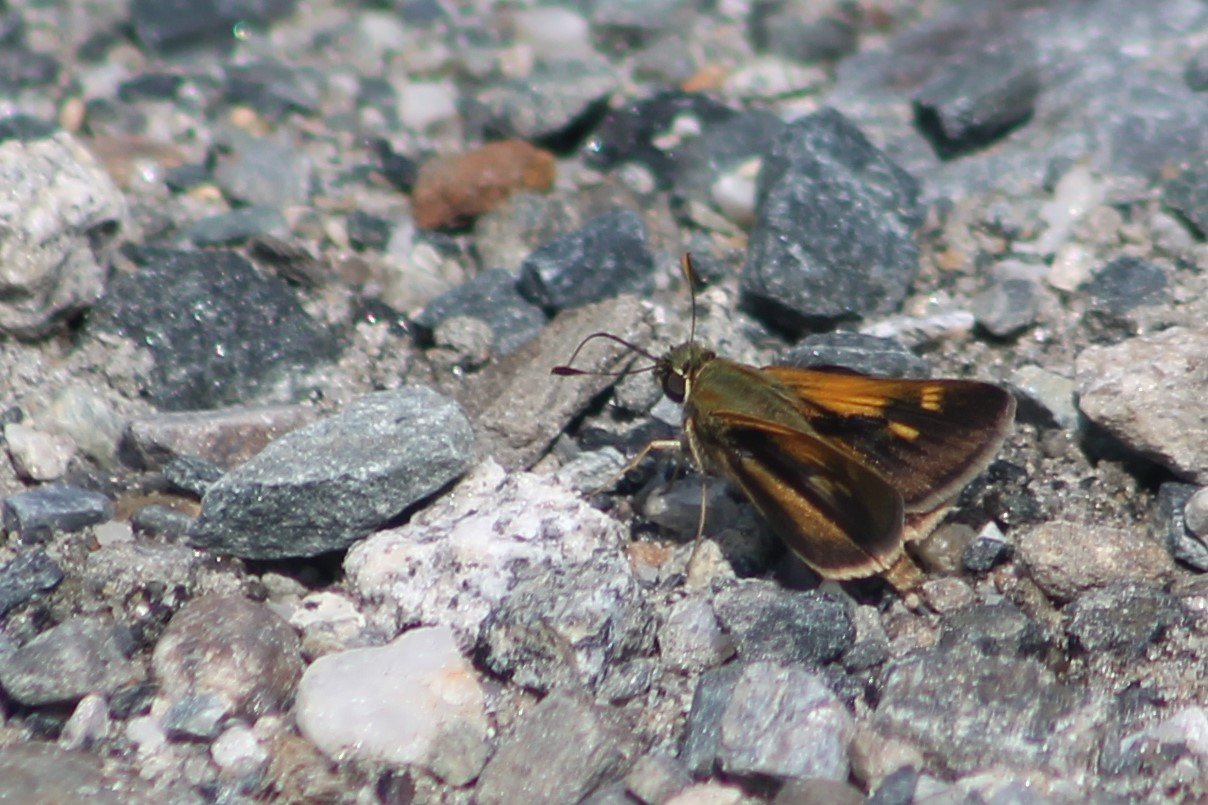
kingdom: Animalia
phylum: Arthropoda
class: Insecta
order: Lepidoptera
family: Hesperiidae
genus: Euphyes
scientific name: Euphyes
